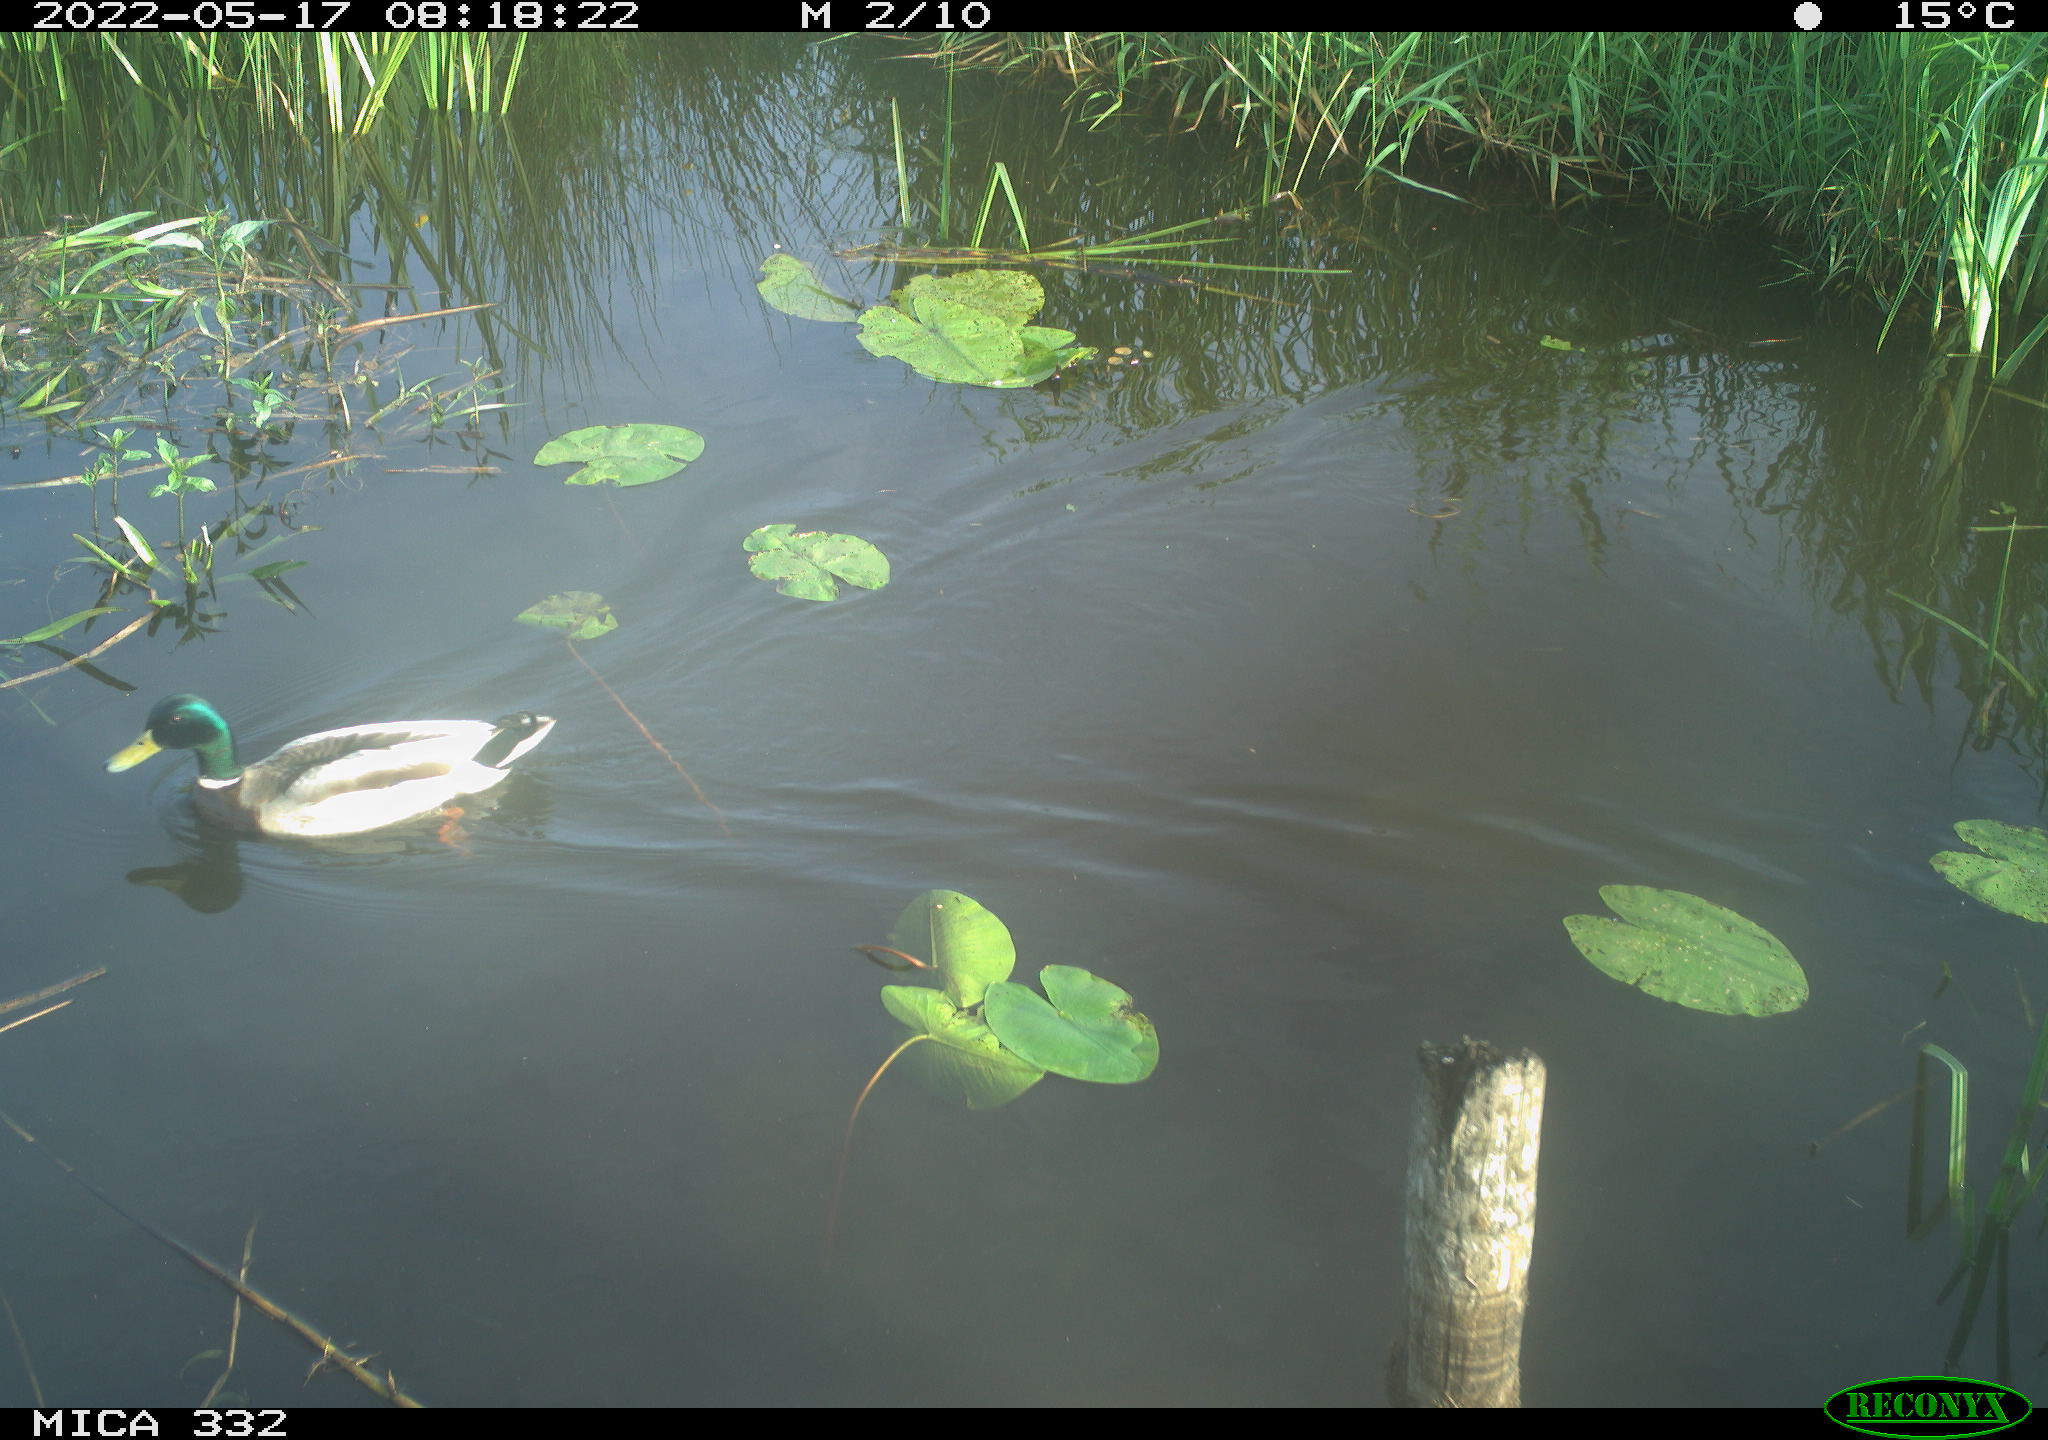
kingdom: Animalia
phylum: Chordata
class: Aves
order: Anseriformes
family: Anatidae
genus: Anas
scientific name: Anas platyrhynchos
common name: Mallard
